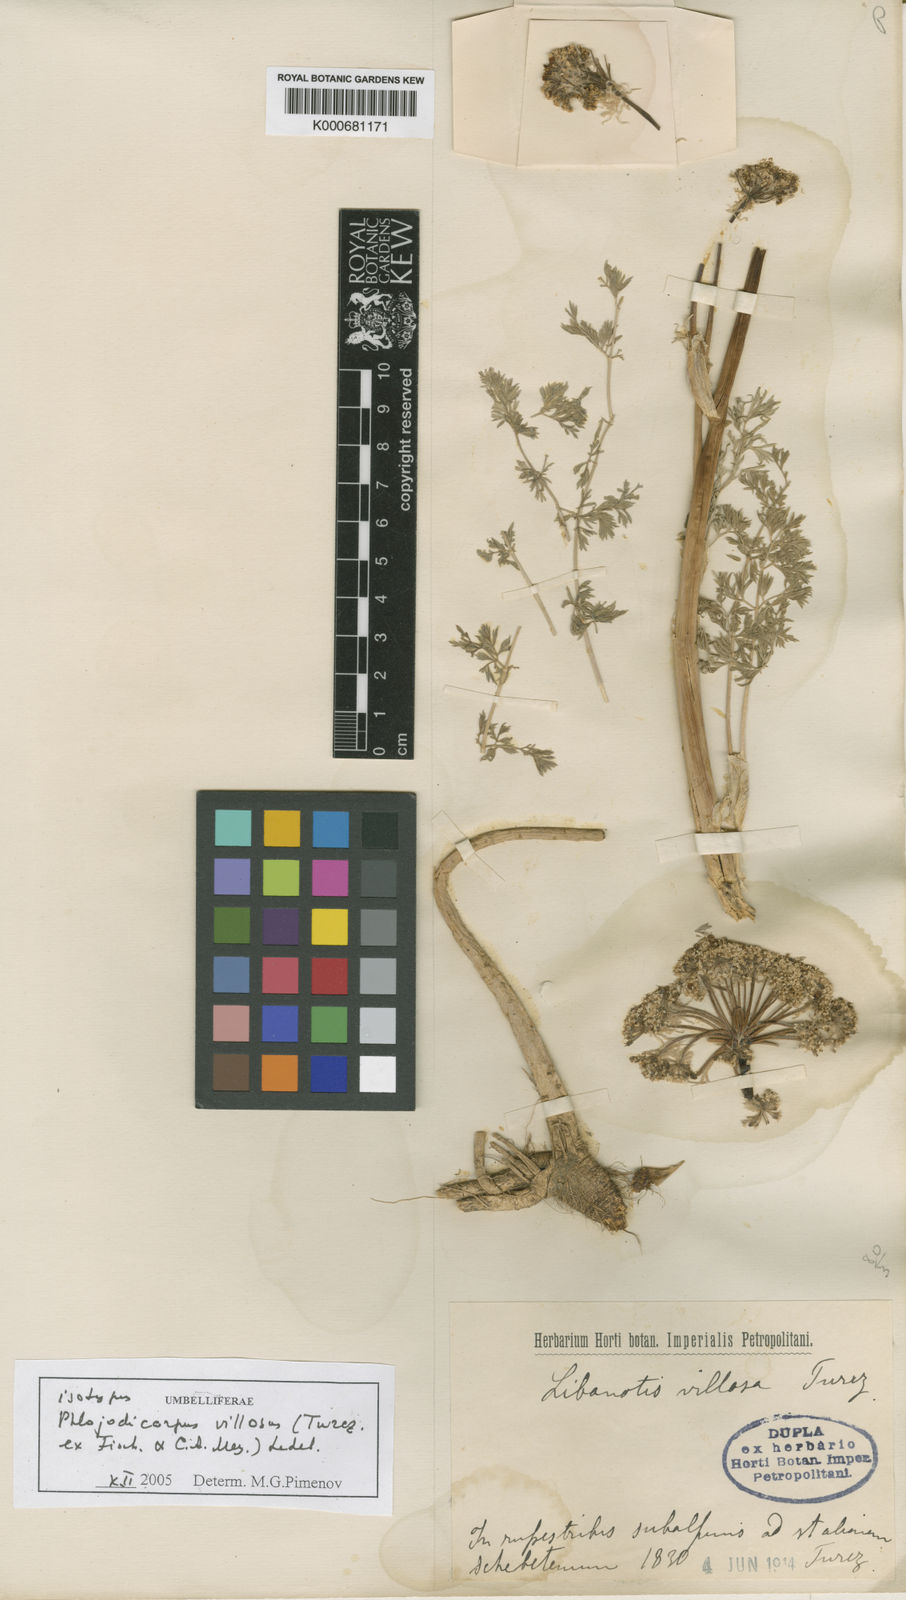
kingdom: Plantae
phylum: Tracheophyta
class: Magnoliopsida
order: Apiales
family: Apiaceae
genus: Phlojodicarpus
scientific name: Phlojodicarpus villosus
